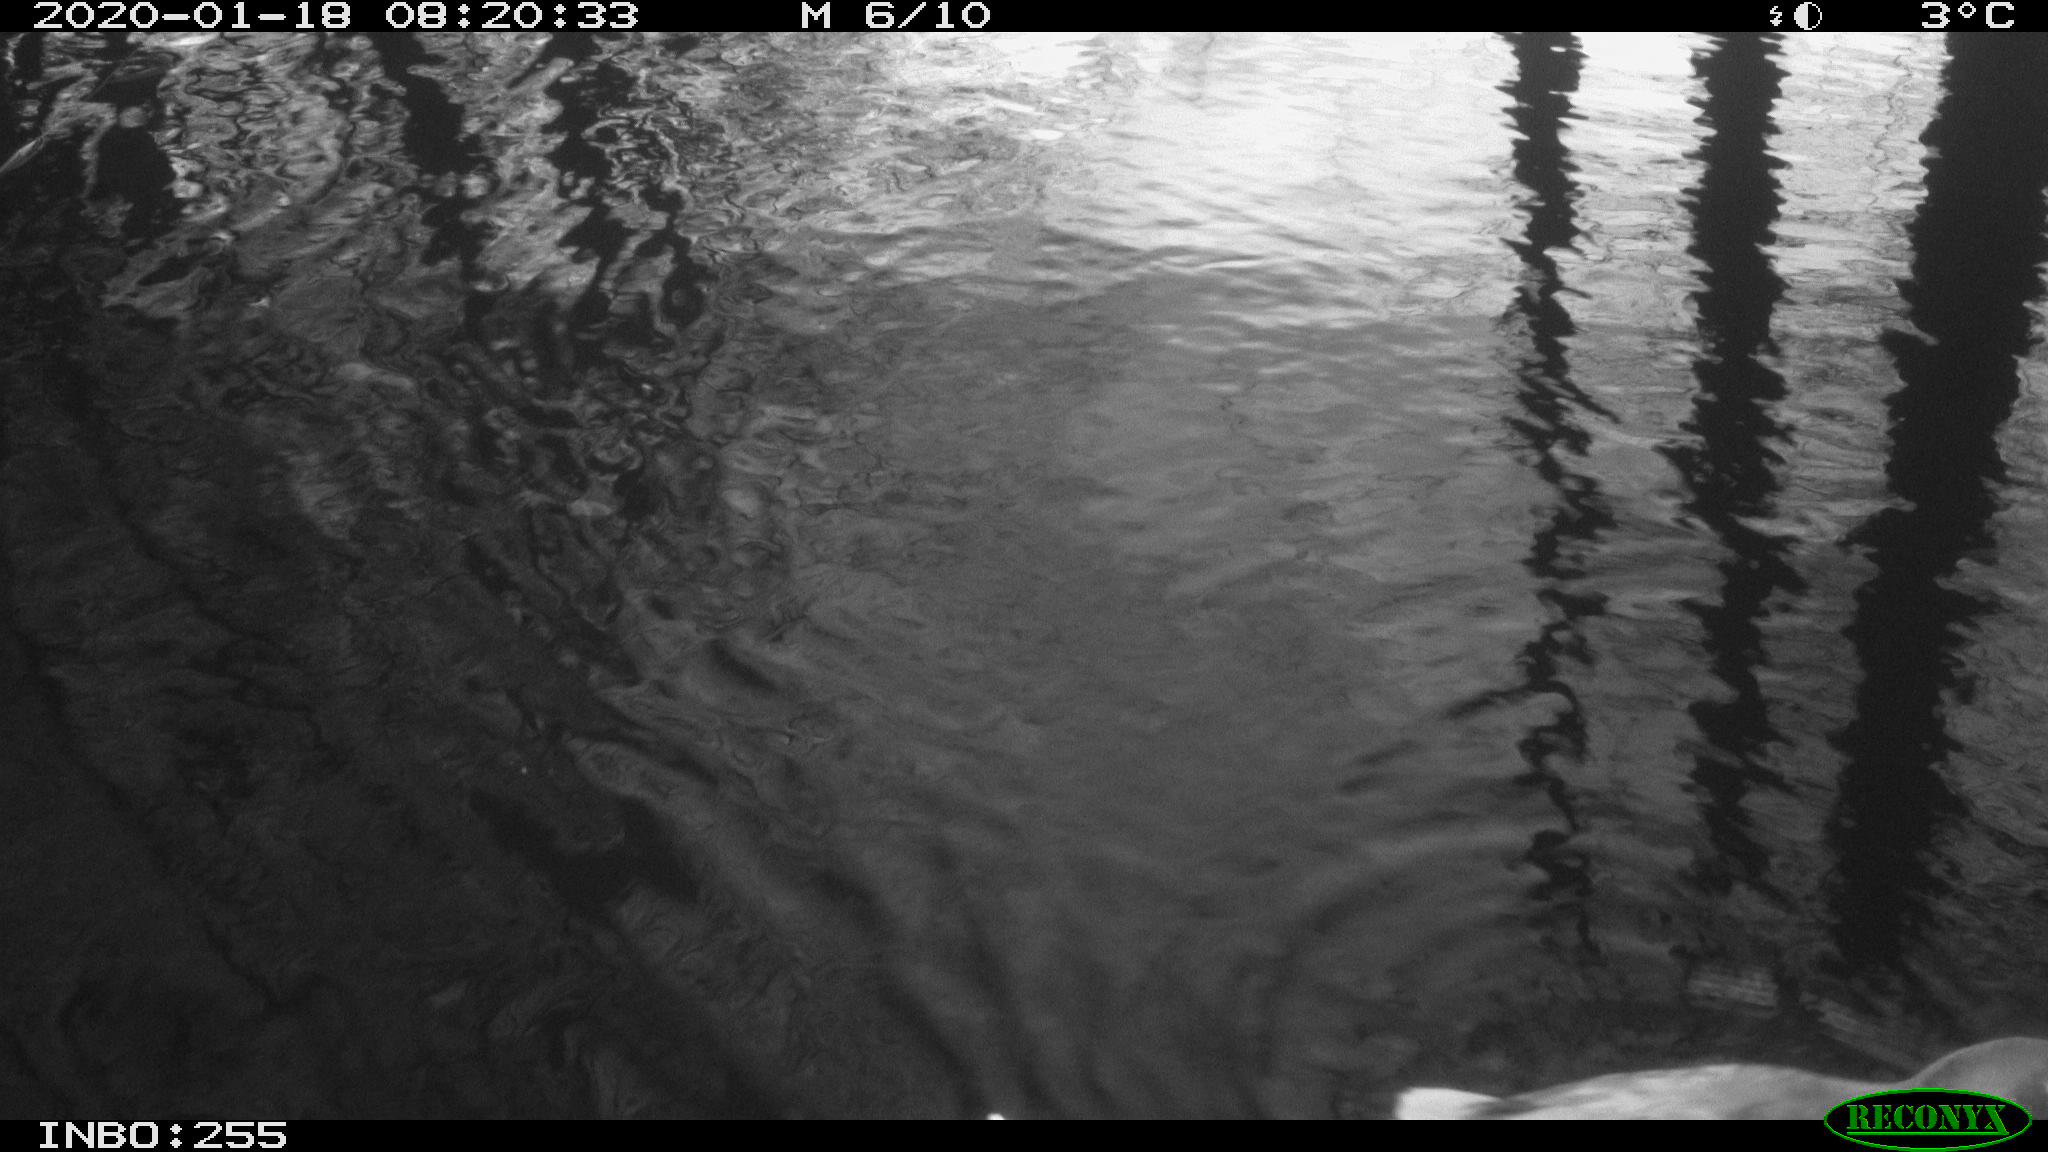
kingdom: Animalia
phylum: Chordata
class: Aves
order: Gruiformes
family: Rallidae
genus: Gallinula
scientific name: Gallinula chloropus
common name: Common moorhen
